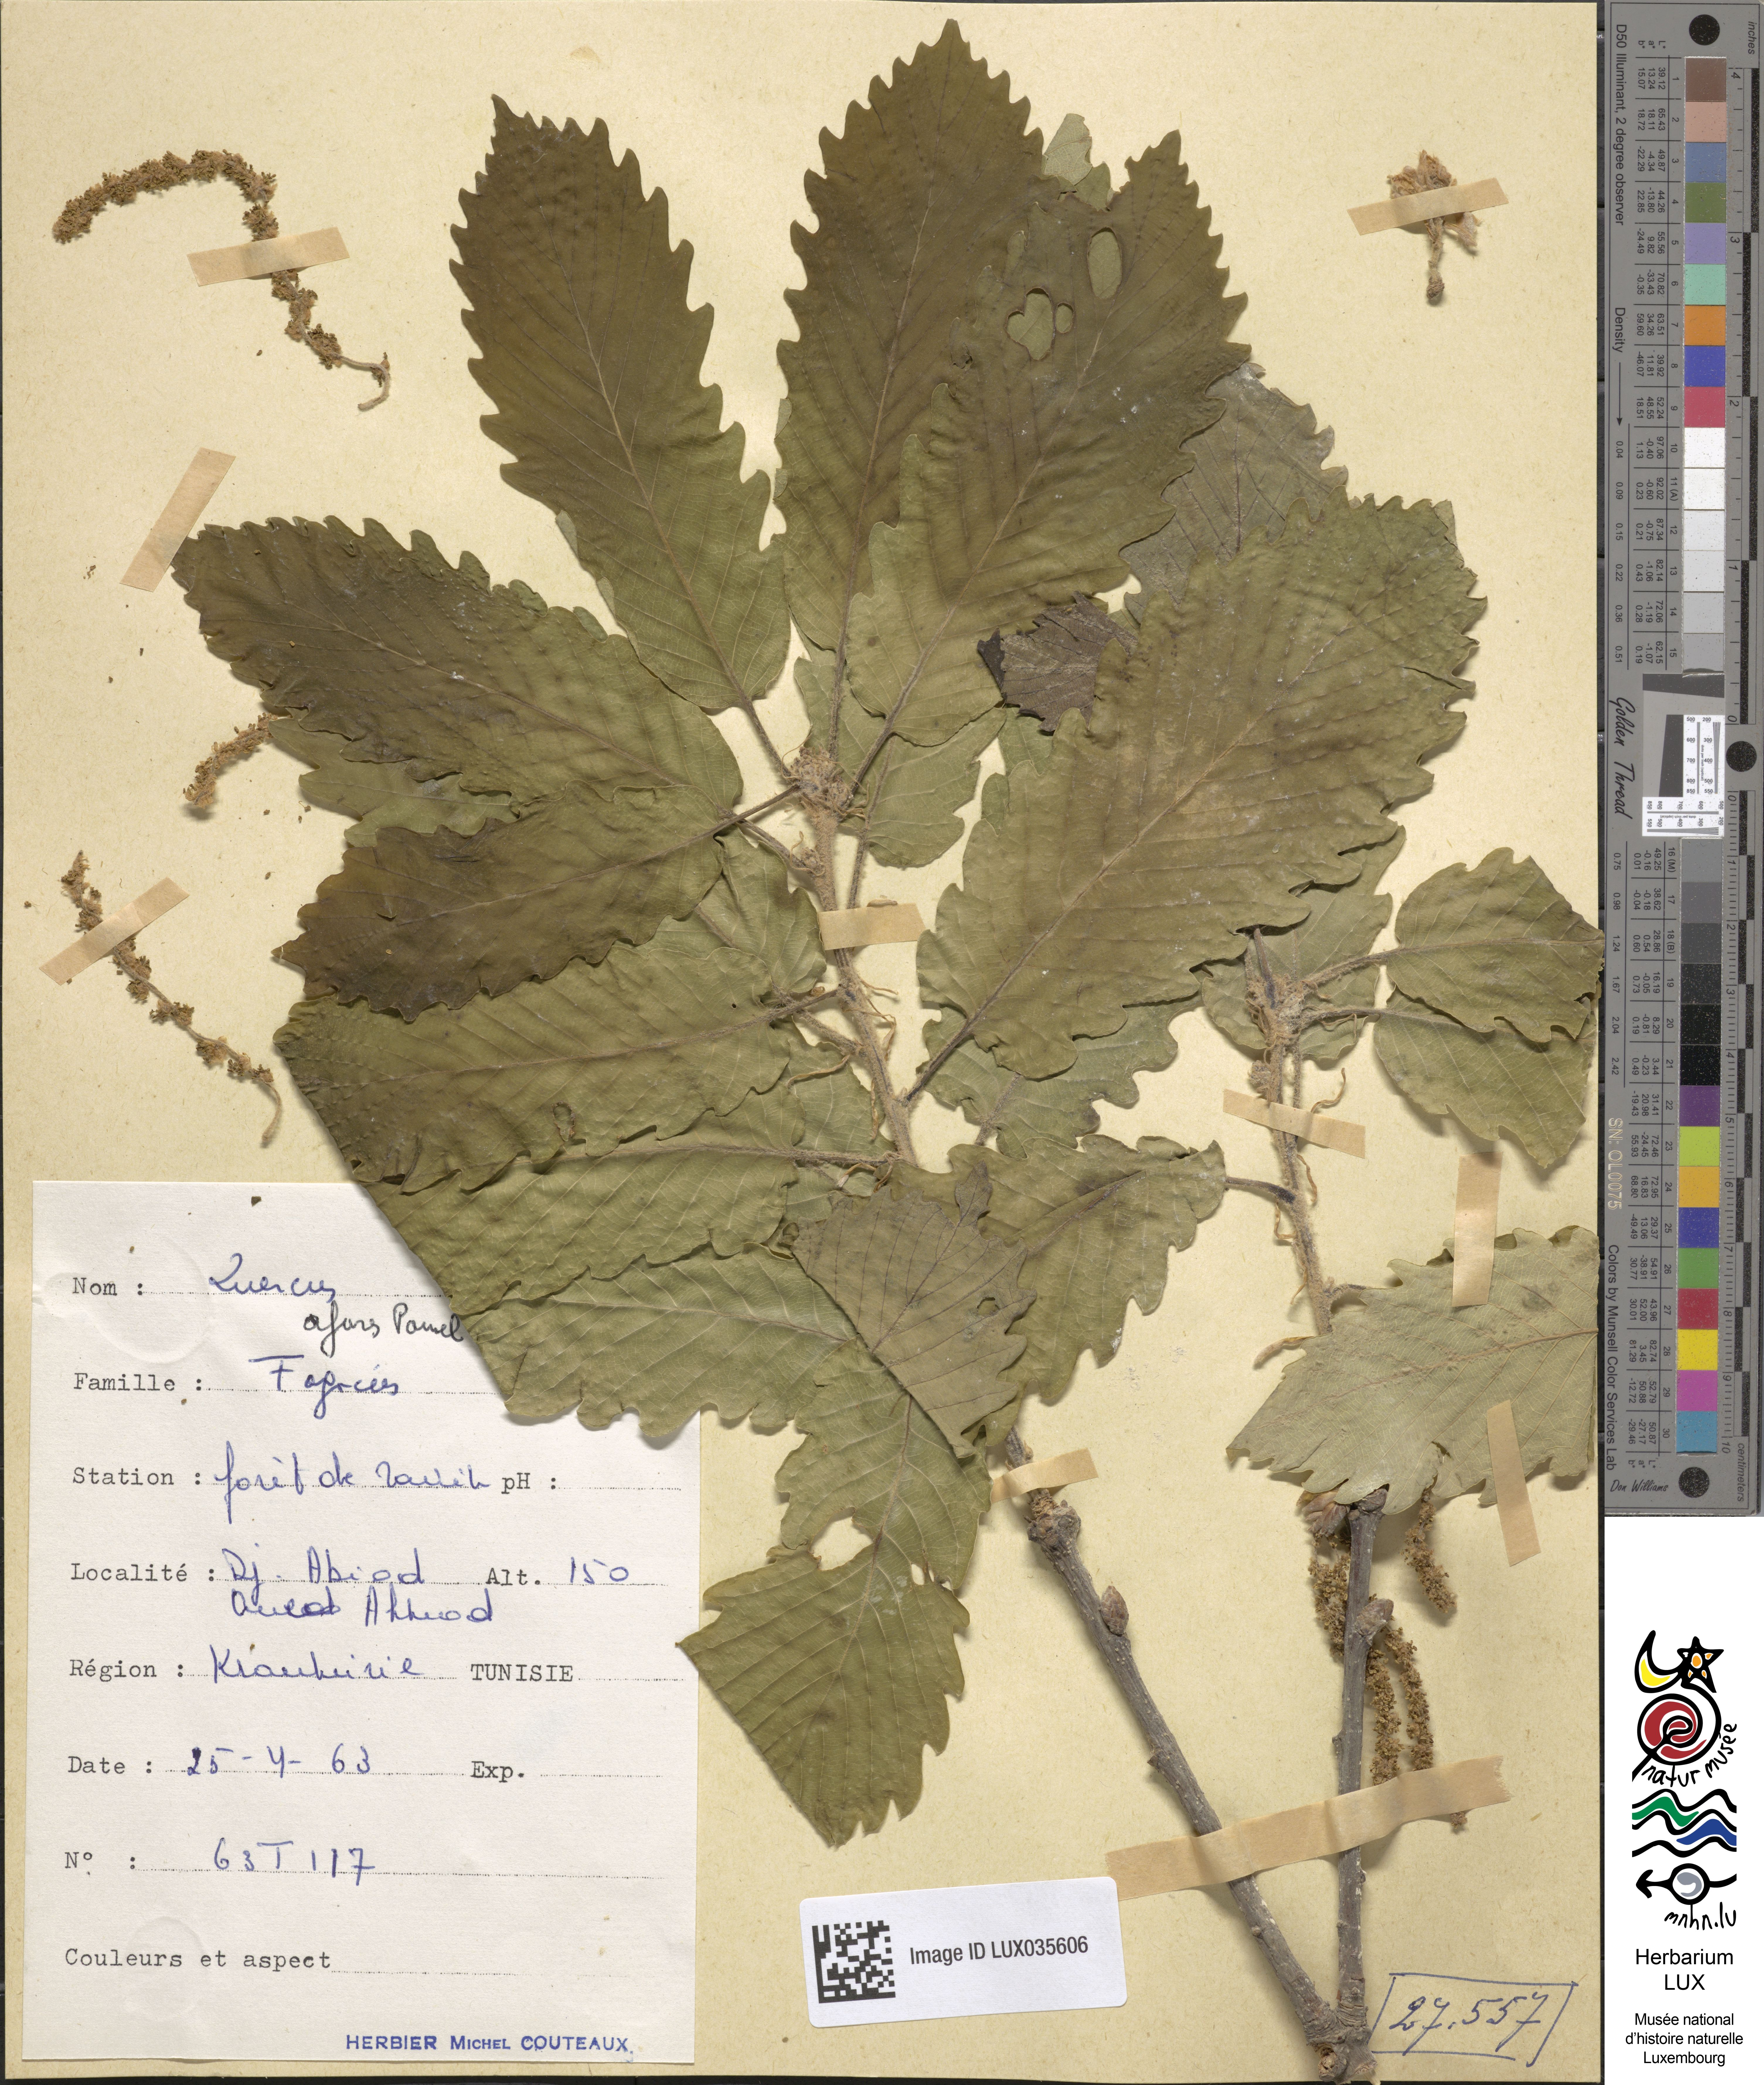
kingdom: Plantae
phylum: Tracheophyta
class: Magnoliopsida
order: Fagales
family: Fagaceae
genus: Quercus
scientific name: Quercus afares
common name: African oak
